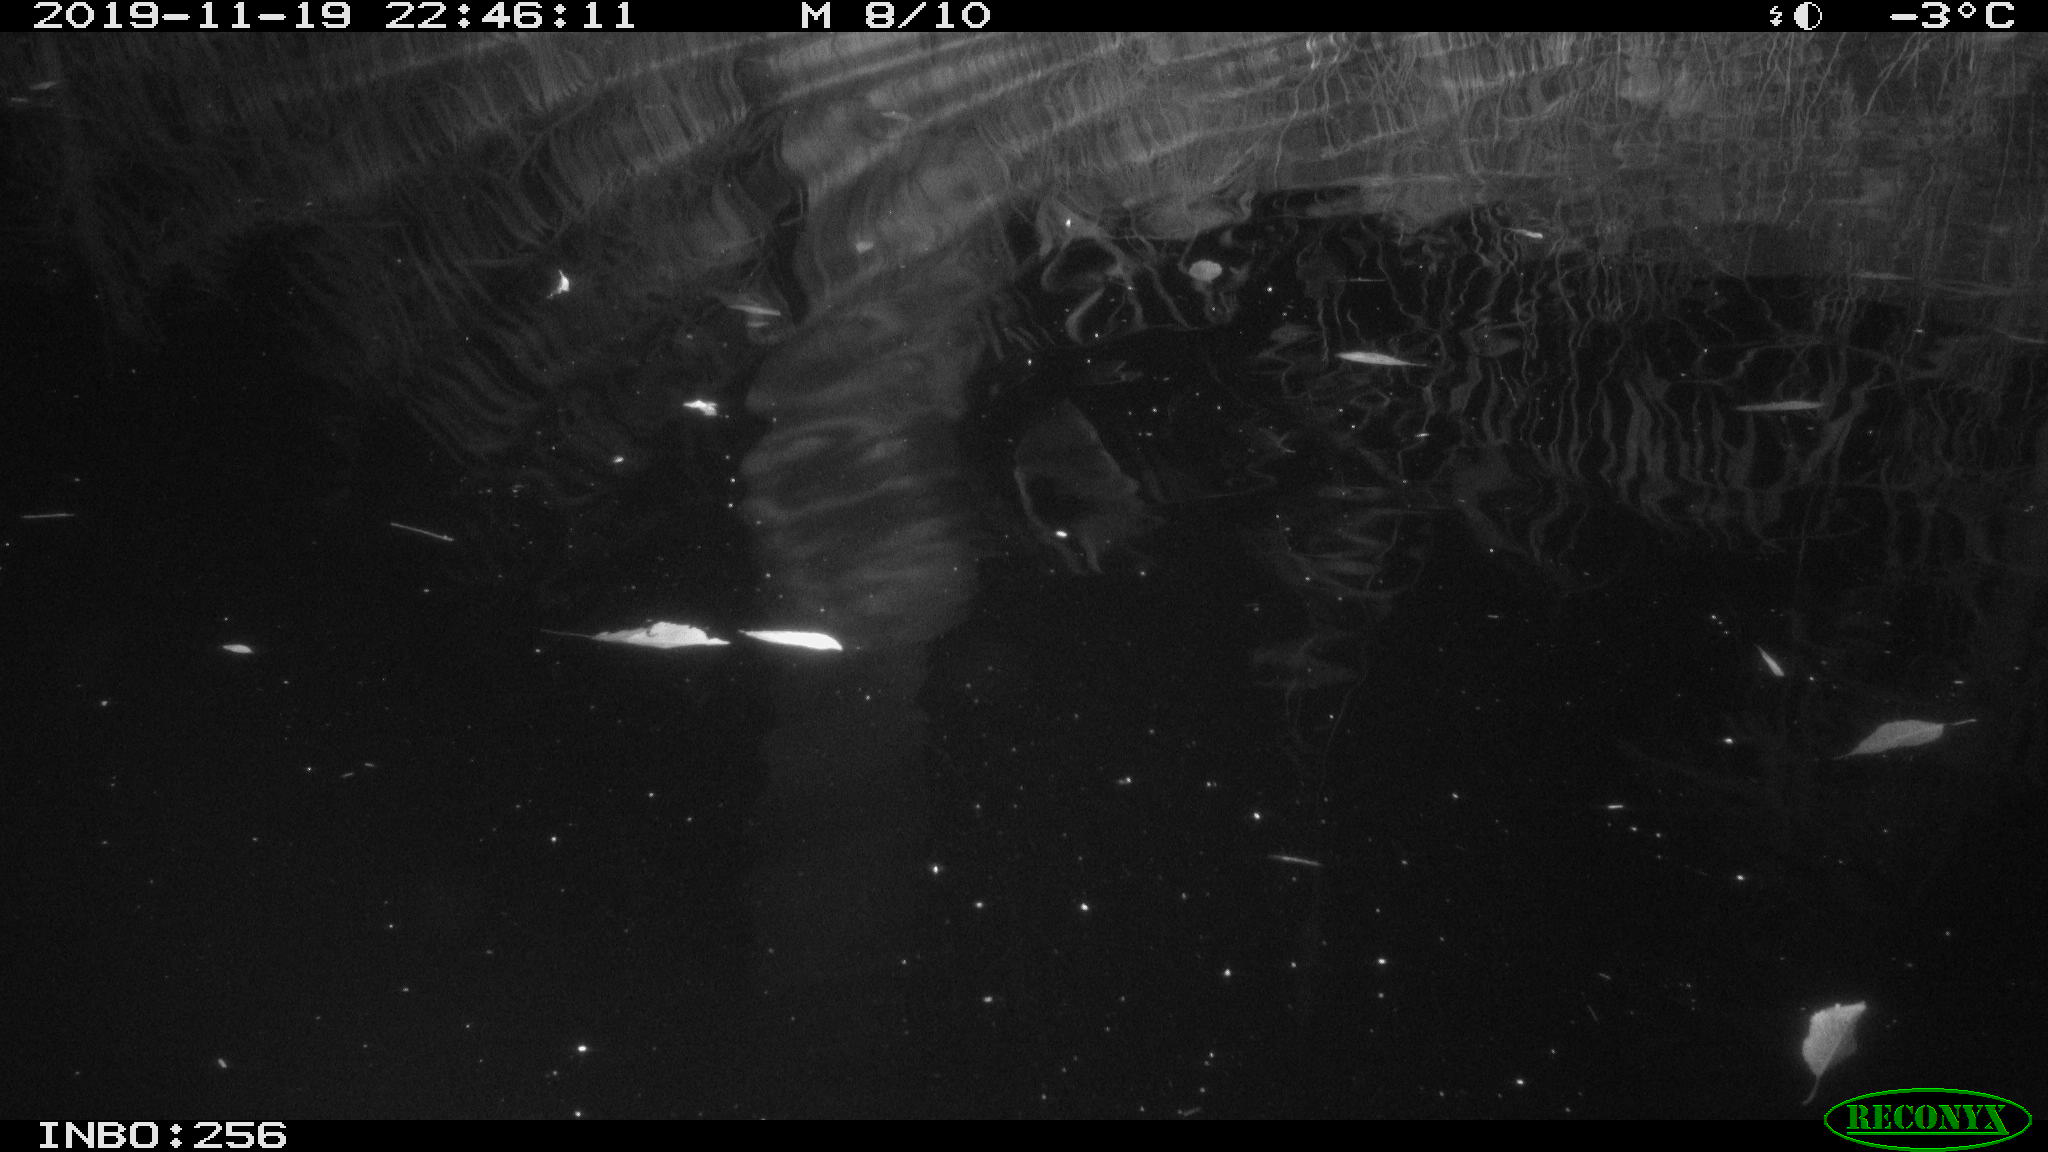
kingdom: Animalia
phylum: Chordata
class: Mammalia
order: Rodentia
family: Muridae
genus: Rattus
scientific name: Rattus norvegicus
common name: Brown rat
